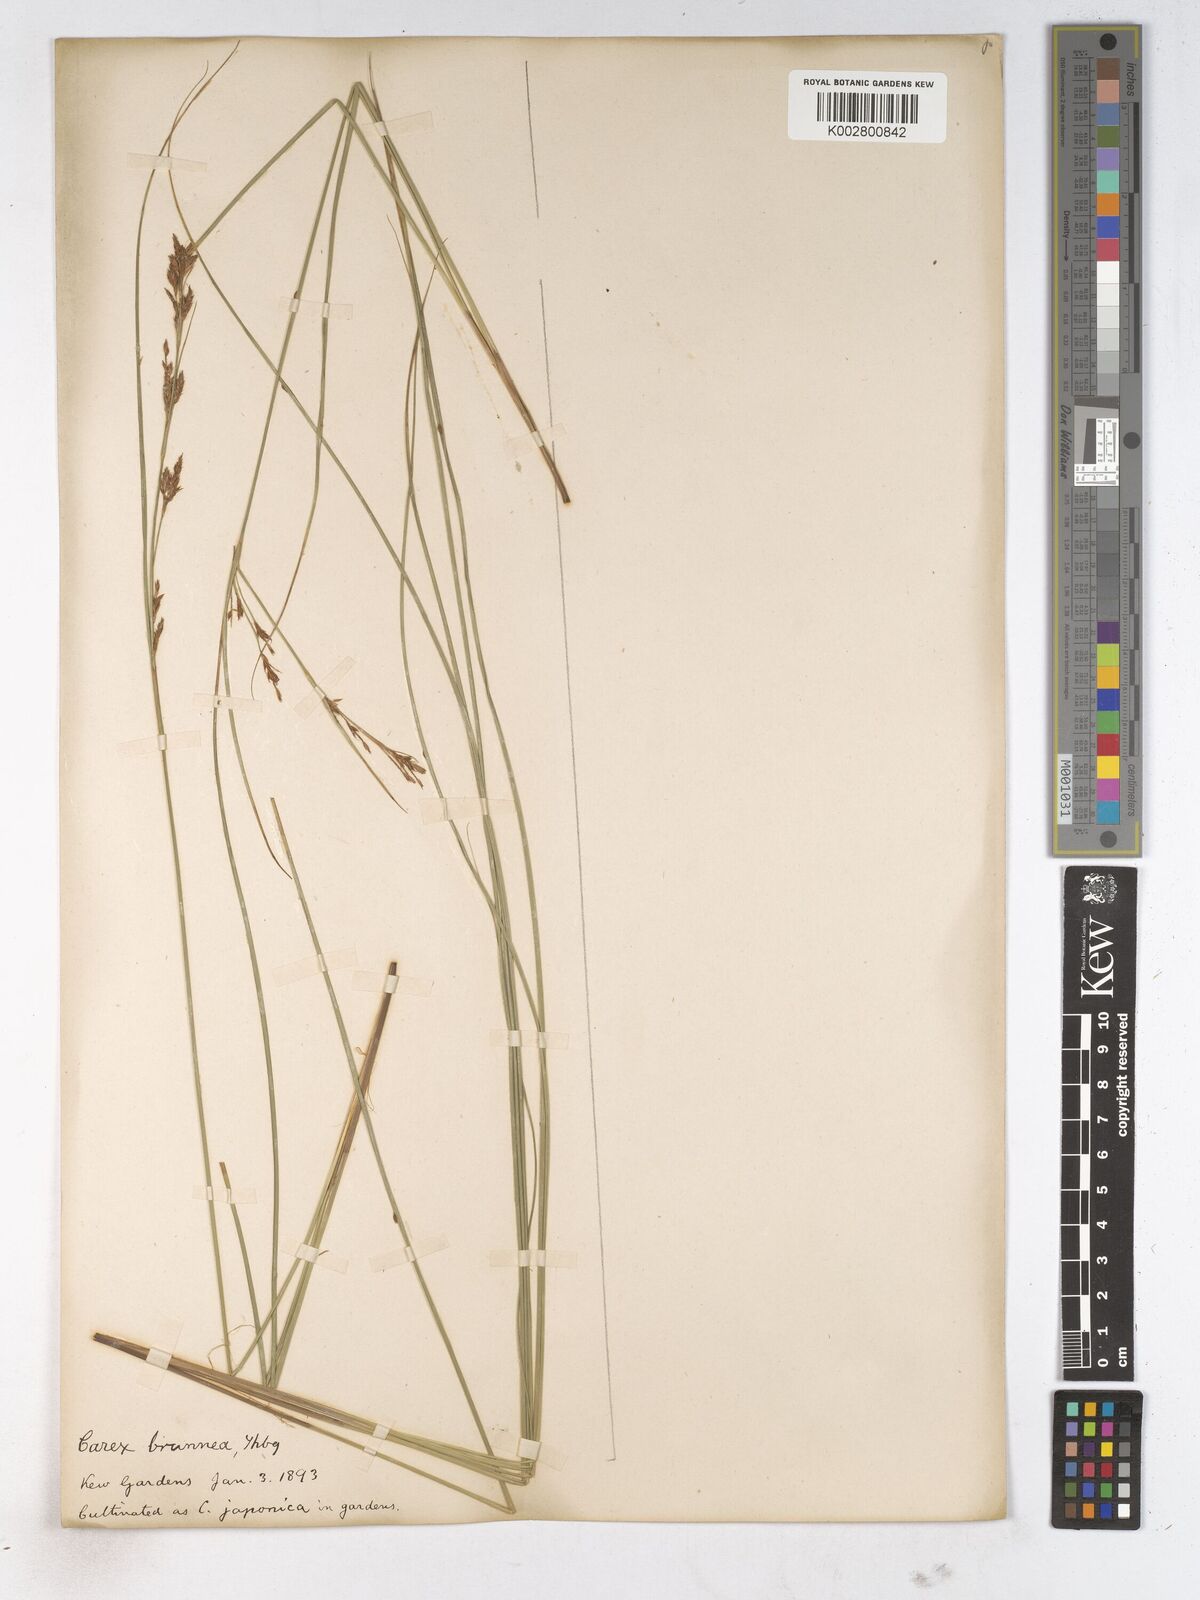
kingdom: Plantae
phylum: Tracheophyta
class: Liliopsida
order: Poales
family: Cyperaceae
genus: Carex
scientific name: Carex breviculmis
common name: Asian shortstem sedge
